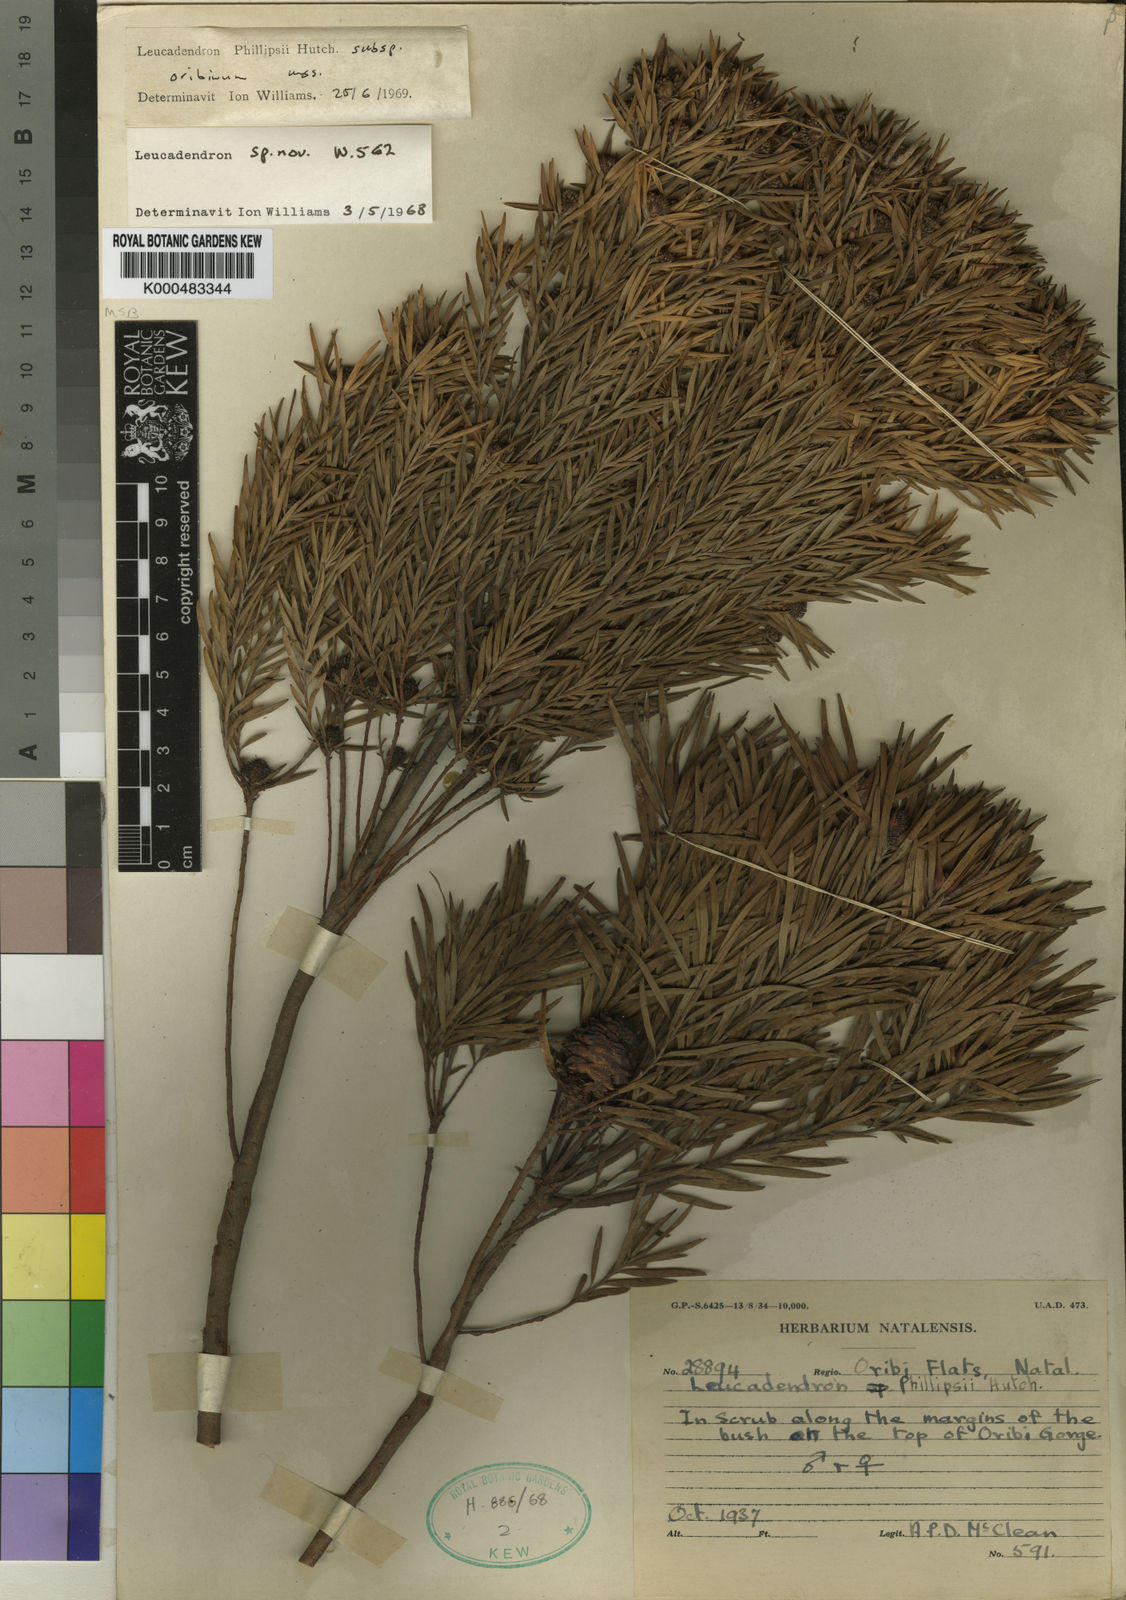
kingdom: Plantae
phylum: Tracheophyta
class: Magnoliopsida
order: Proteales
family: Proteaceae
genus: Leucadendron
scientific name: Leucadendron spissifolium
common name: Spear-leaf conebush
